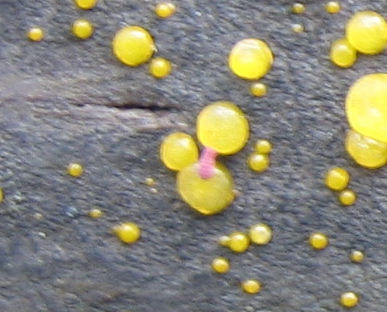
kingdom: Fungi
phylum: Basidiomycota
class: Dacrymycetes
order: Dacrymycetales
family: Dacrymycetaceae
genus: Dacrymyces
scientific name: Dacrymyces
